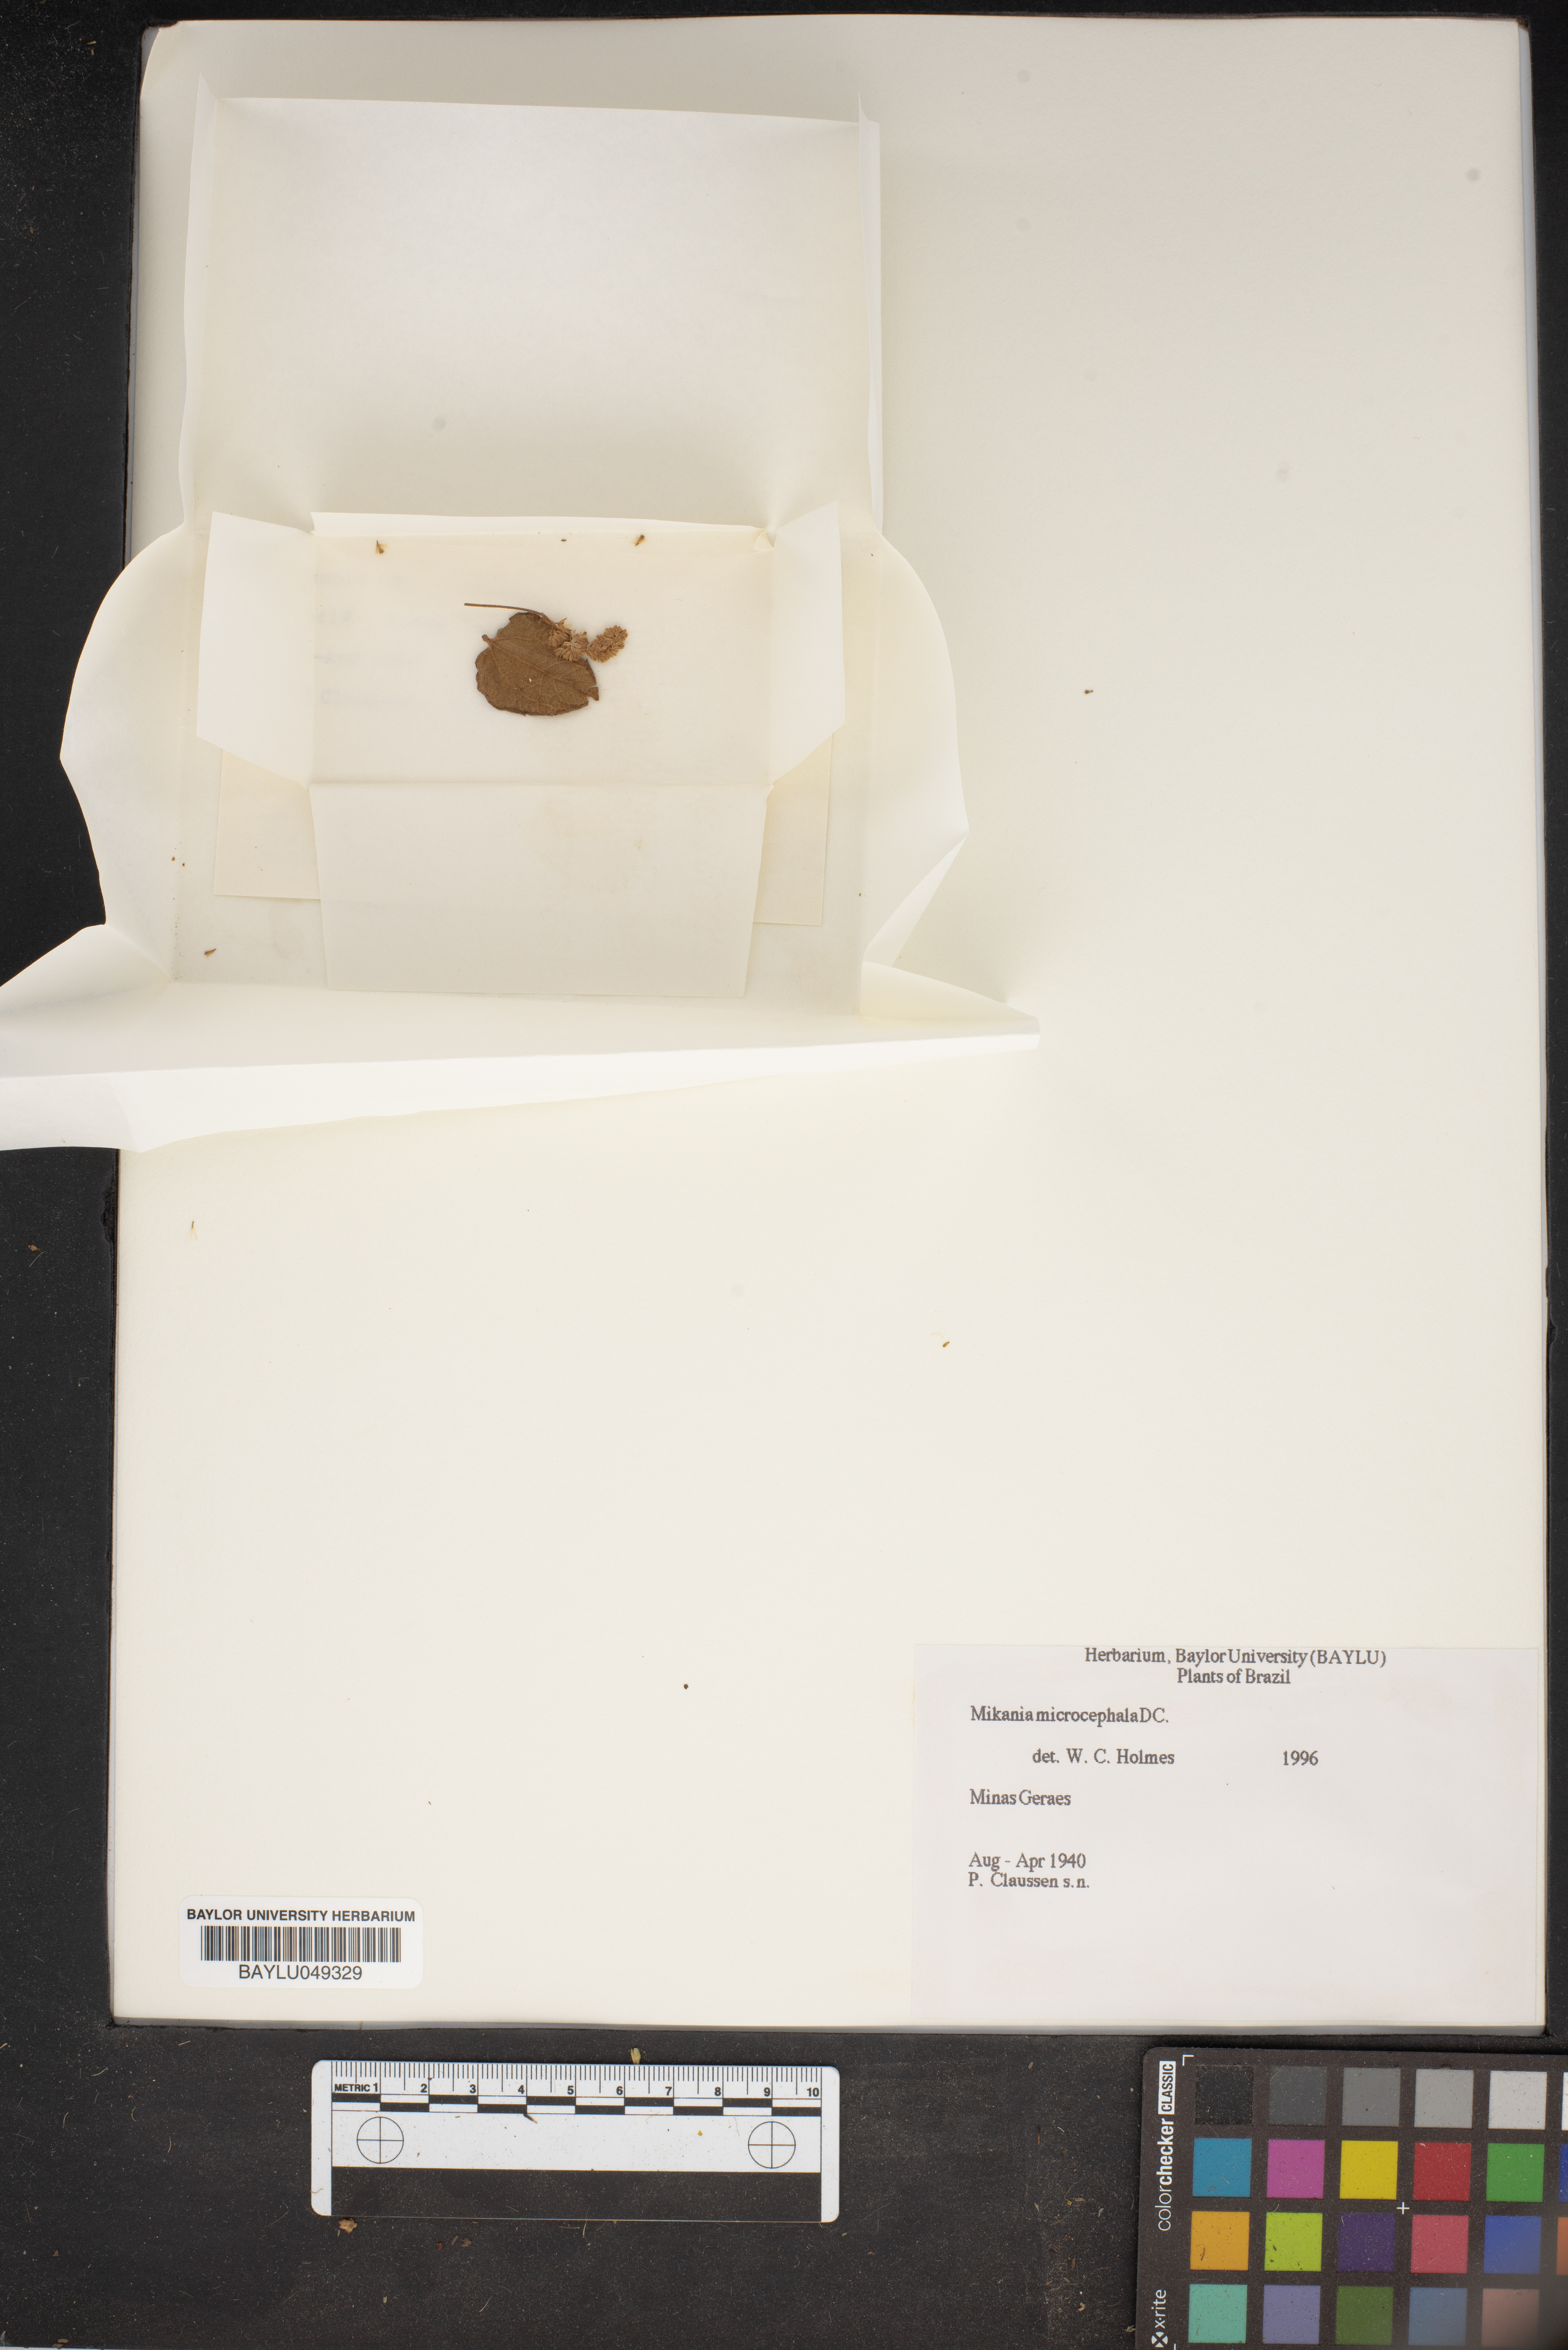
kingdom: Plantae
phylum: Tracheophyta
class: Magnoliopsida
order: Asterales
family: Asteraceae
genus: Mikania
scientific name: Mikania microcephala
